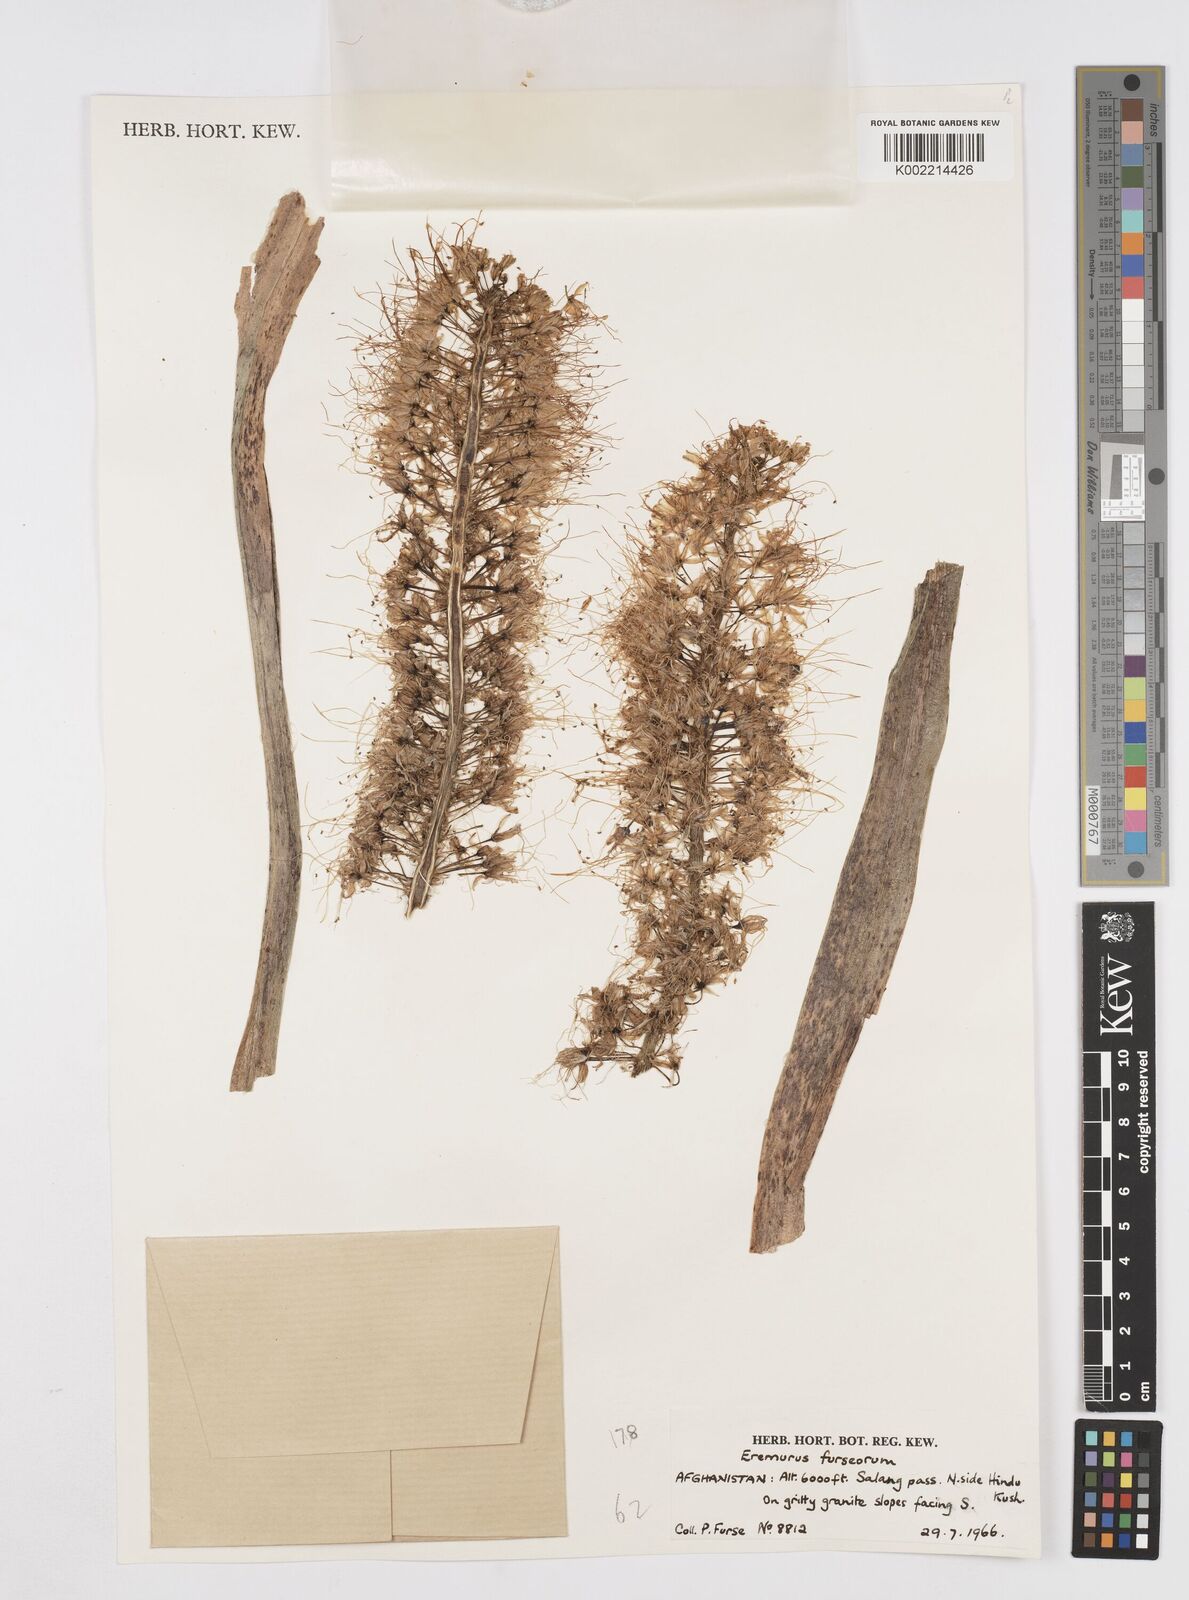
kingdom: Plantae
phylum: Tracheophyta
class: Liliopsida
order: Asparagales
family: Asphodelaceae
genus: Eremurus
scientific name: Eremurus furseorum
